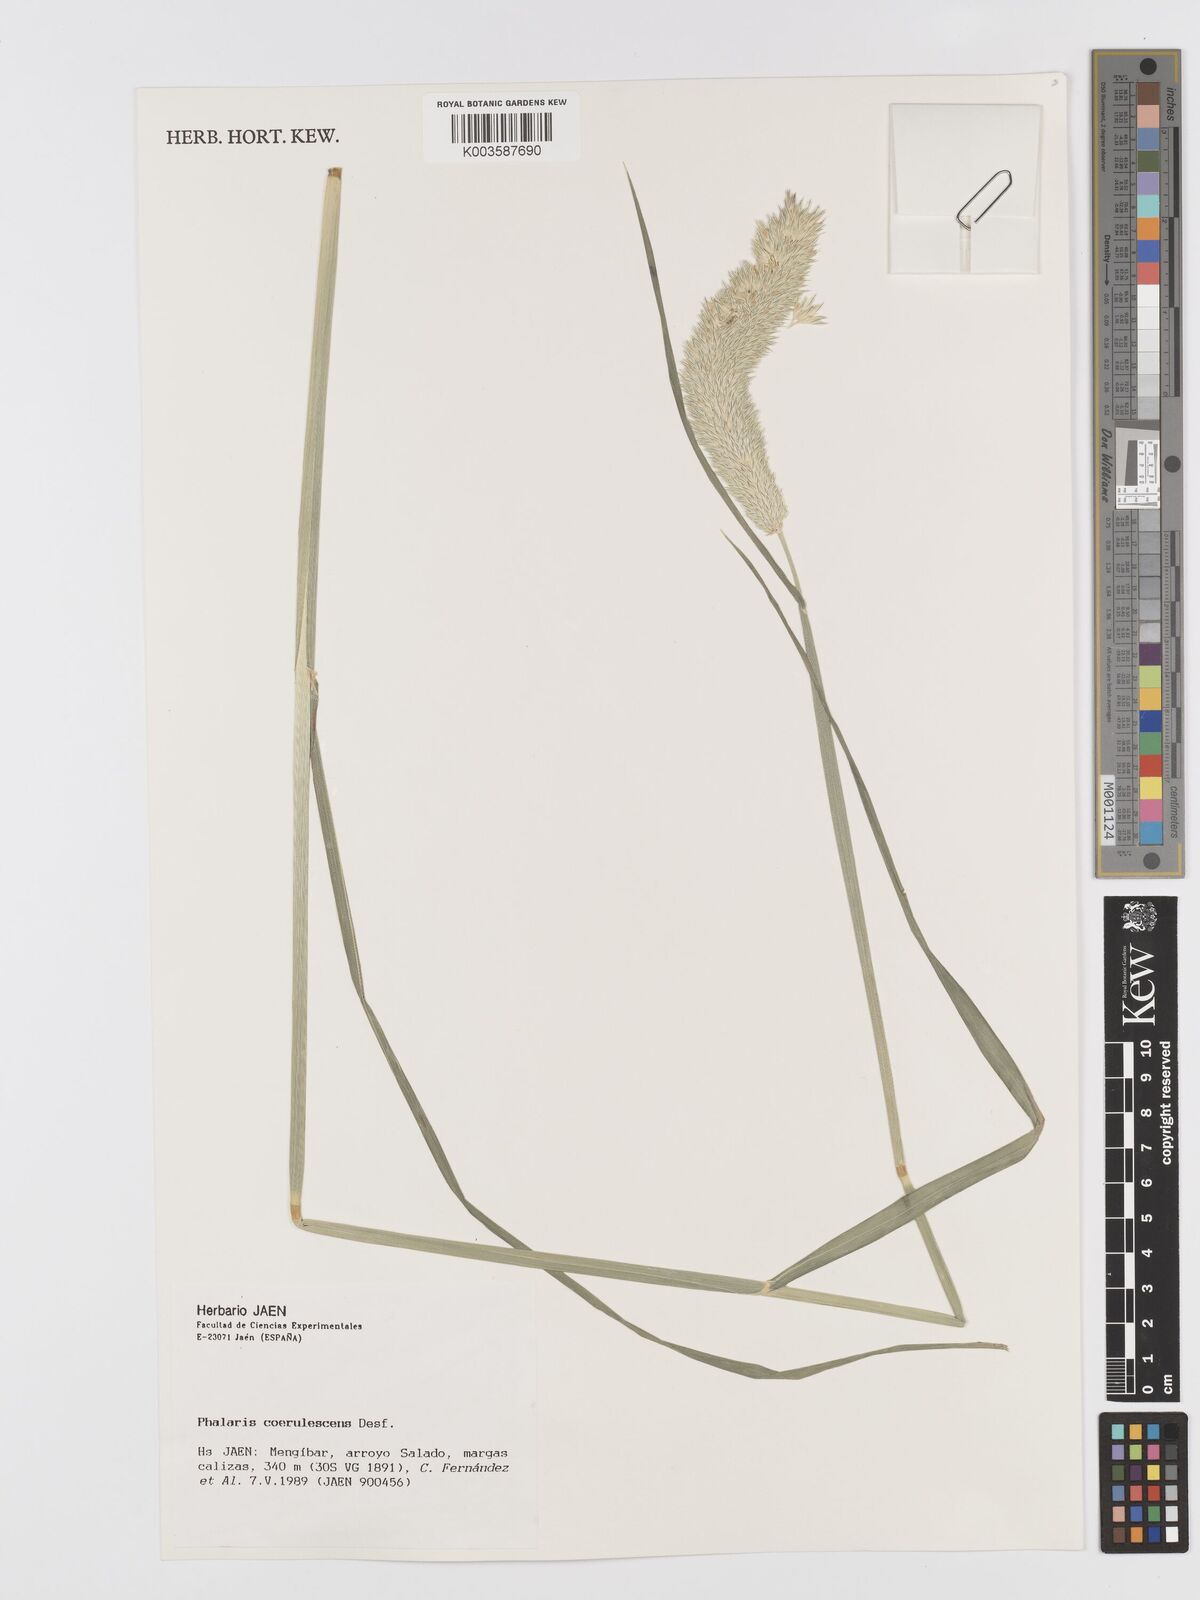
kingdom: Plantae
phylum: Tracheophyta
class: Liliopsida
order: Poales
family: Poaceae
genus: Phalaris
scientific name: Phalaris coerulescens
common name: Sunolgrass
